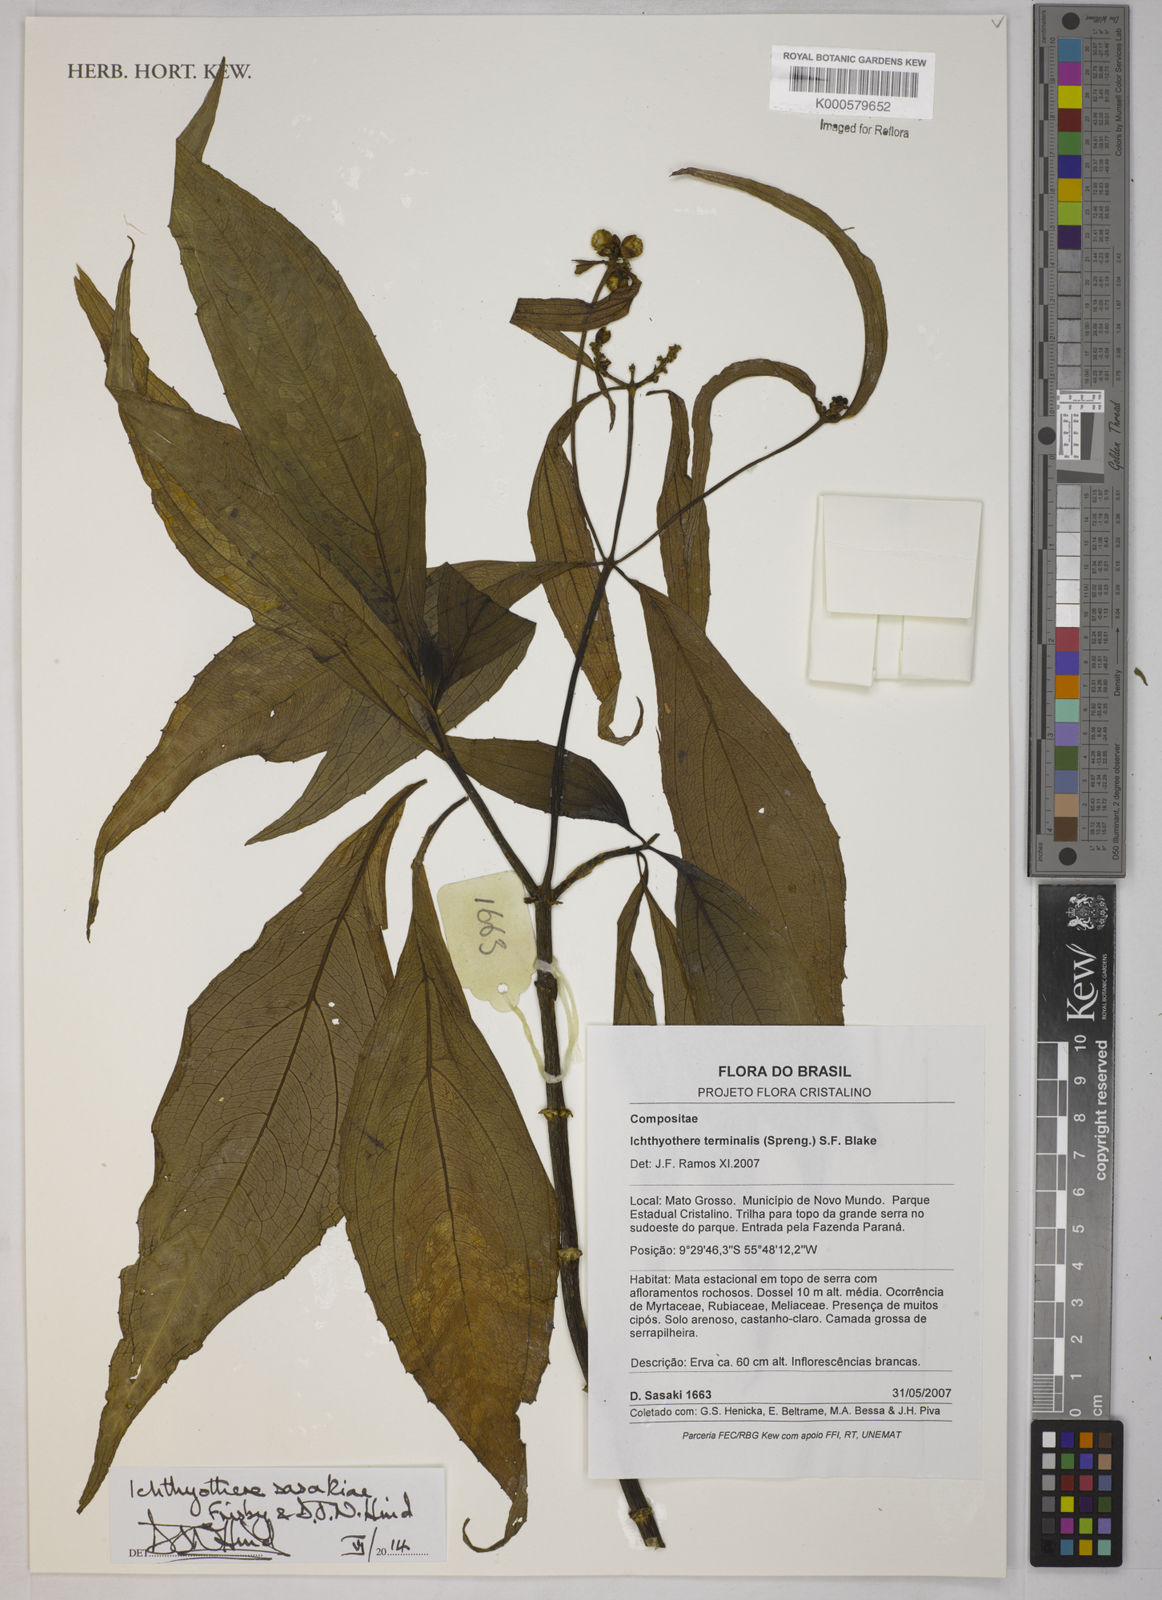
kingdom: Plantae
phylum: Tracheophyta
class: Magnoliopsida
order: Asterales
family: Asteraceae
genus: Ichthyothere
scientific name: Ichthyothere terminalis
